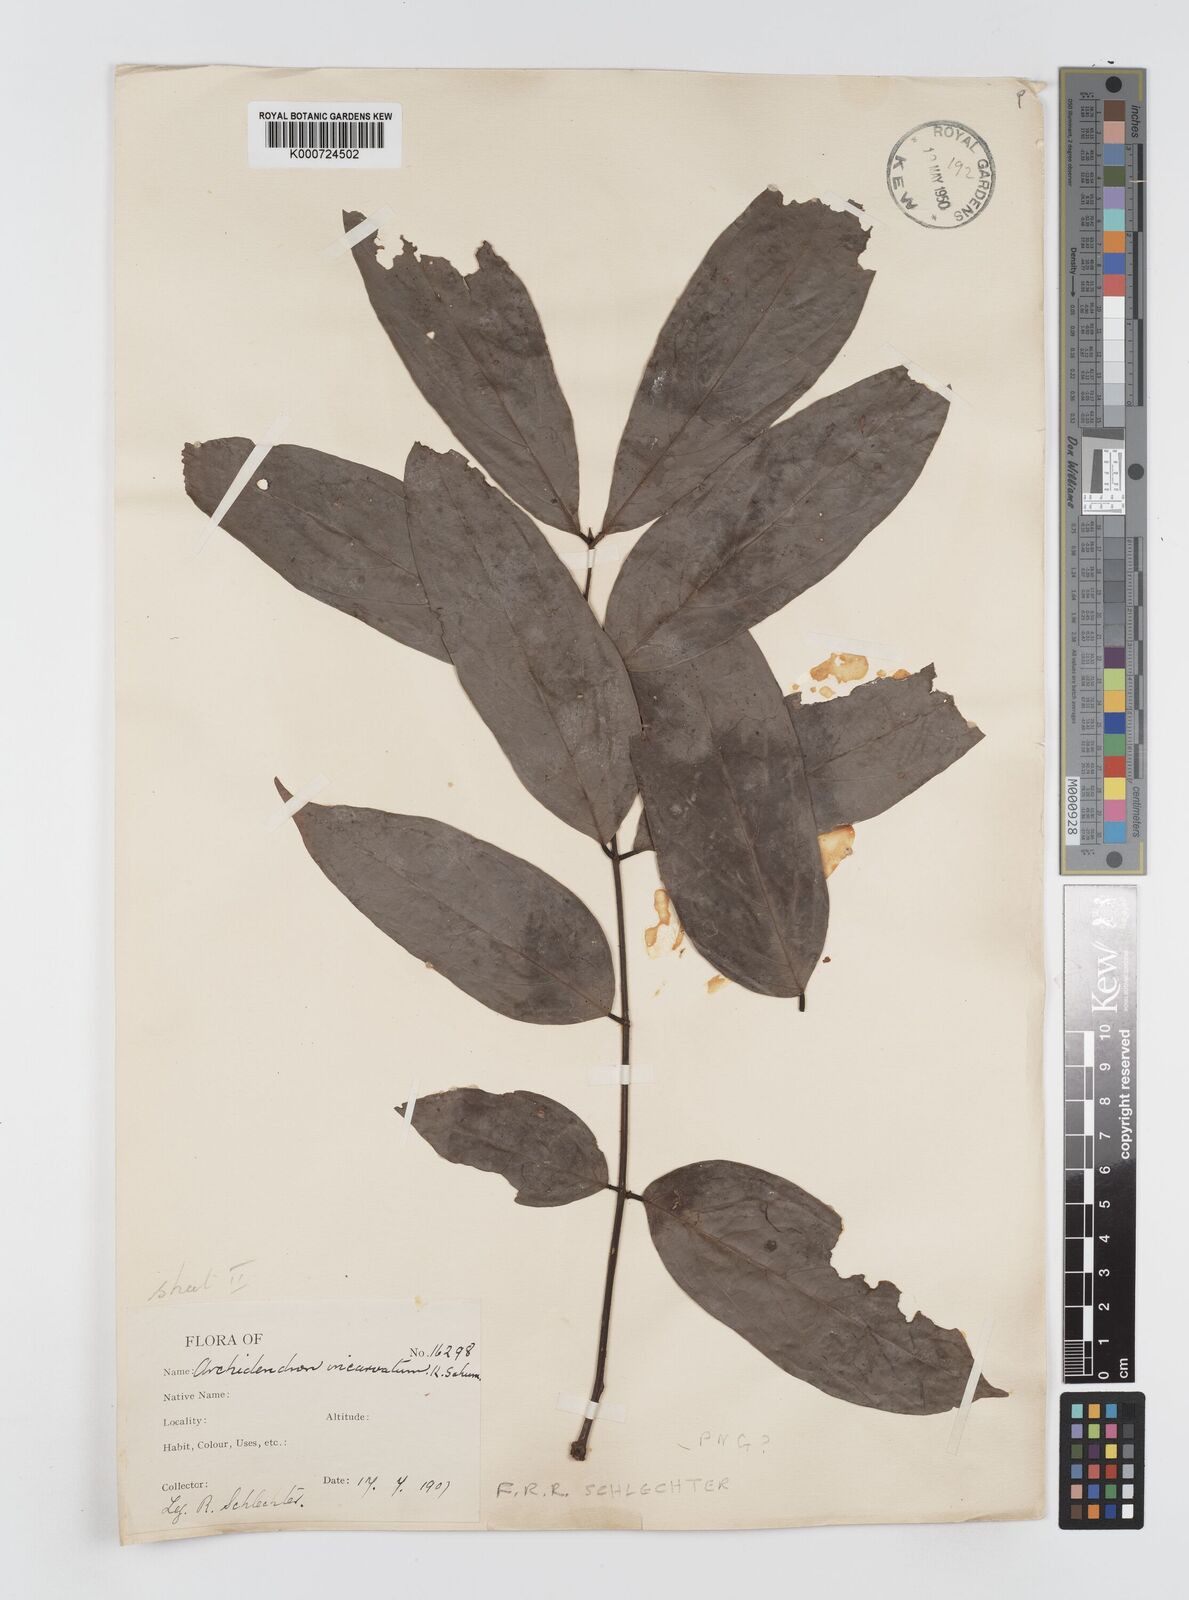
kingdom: Plantae
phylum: Tracheophyta
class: Magnoliopsida
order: Fabales
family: Fabaceae
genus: Archidendron
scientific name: Archidendron aruense
